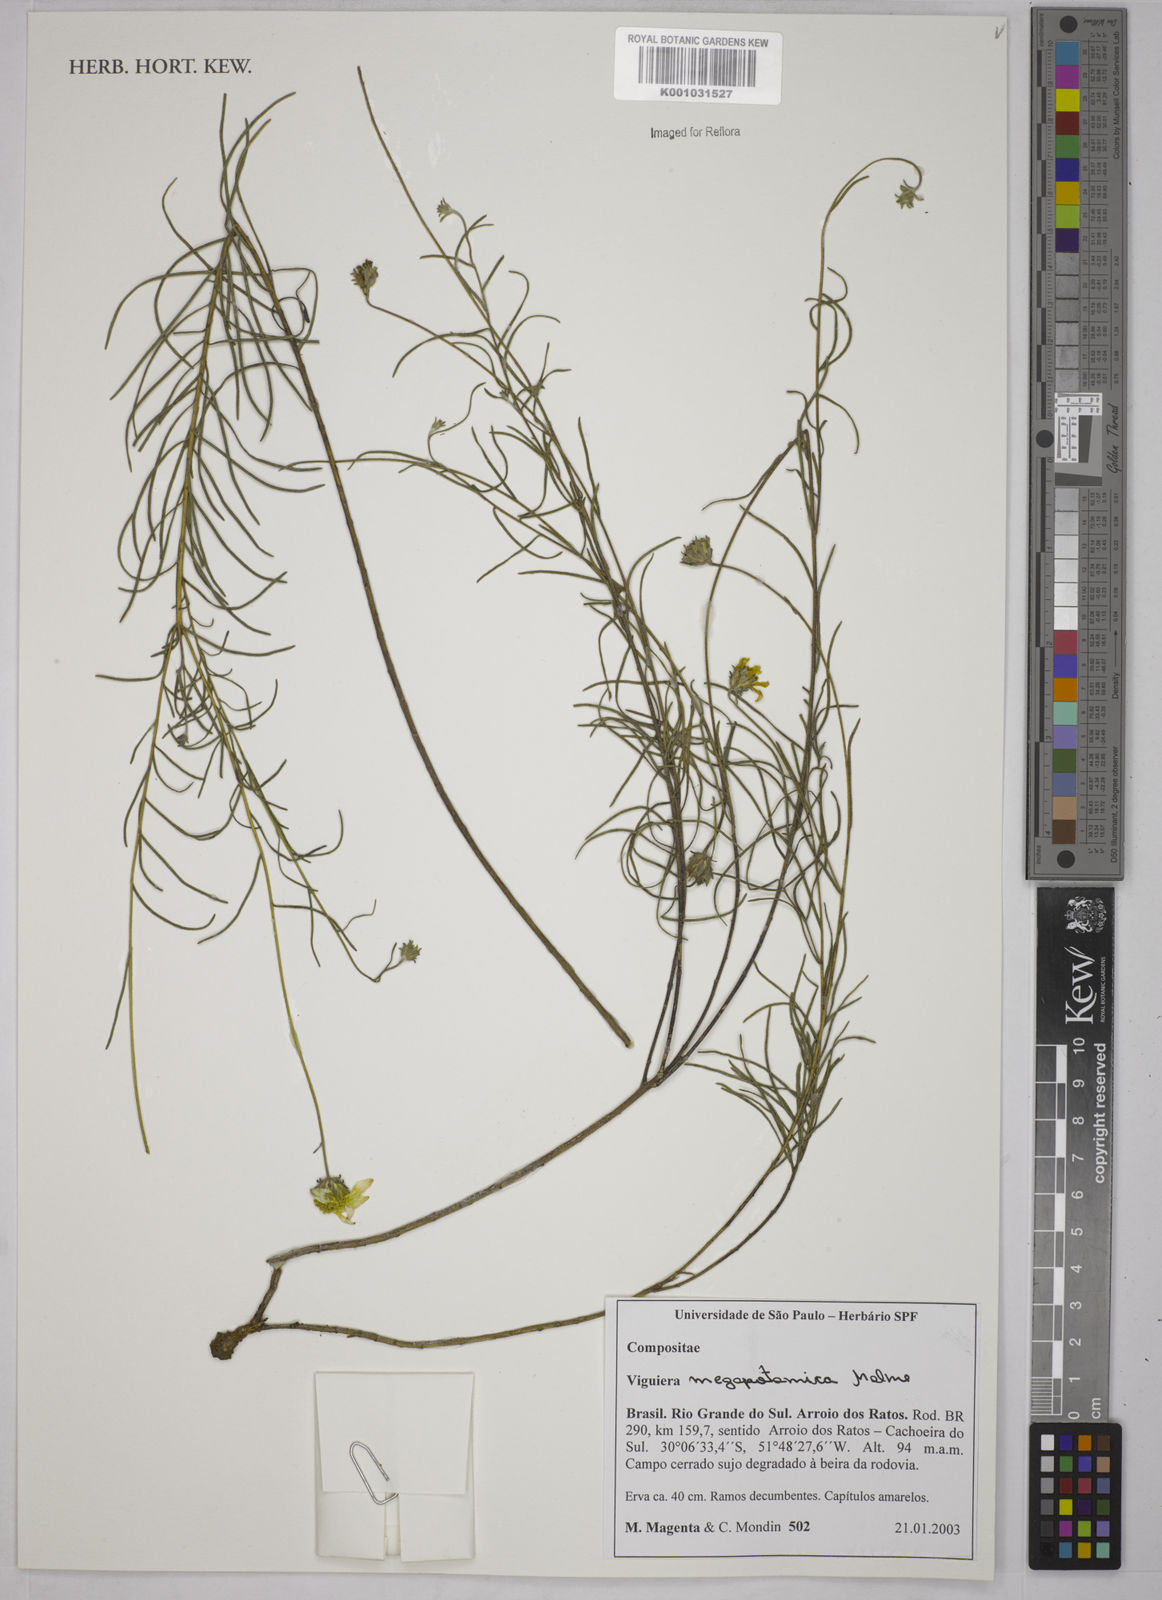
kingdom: Plantae
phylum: Tracheophyta
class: Magnoliopsida
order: Asterales
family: Asteraceae
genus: Aldama
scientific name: Aldama megapotamica
